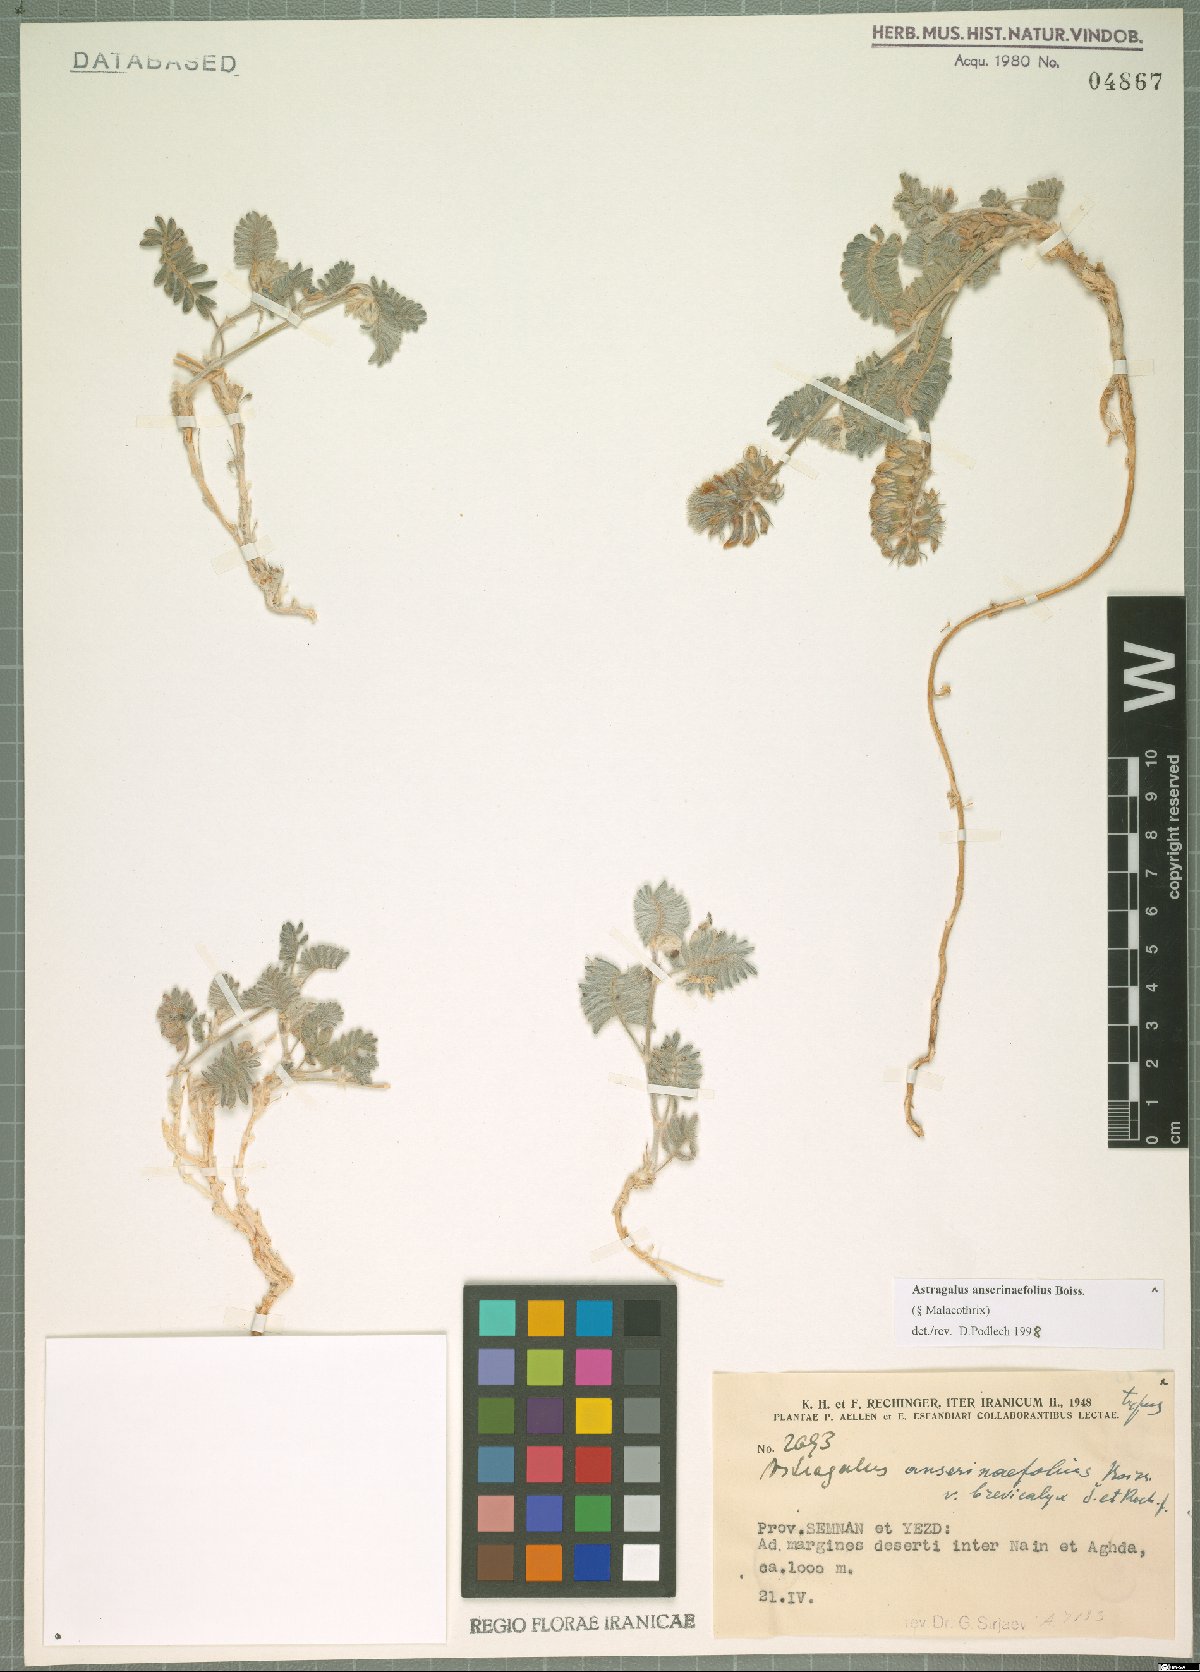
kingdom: Plantae
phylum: Tracheophyta
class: Magnoliopsida
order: Fabales
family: Fabaceae
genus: Astragalus
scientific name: Astragalus anserinifolius
